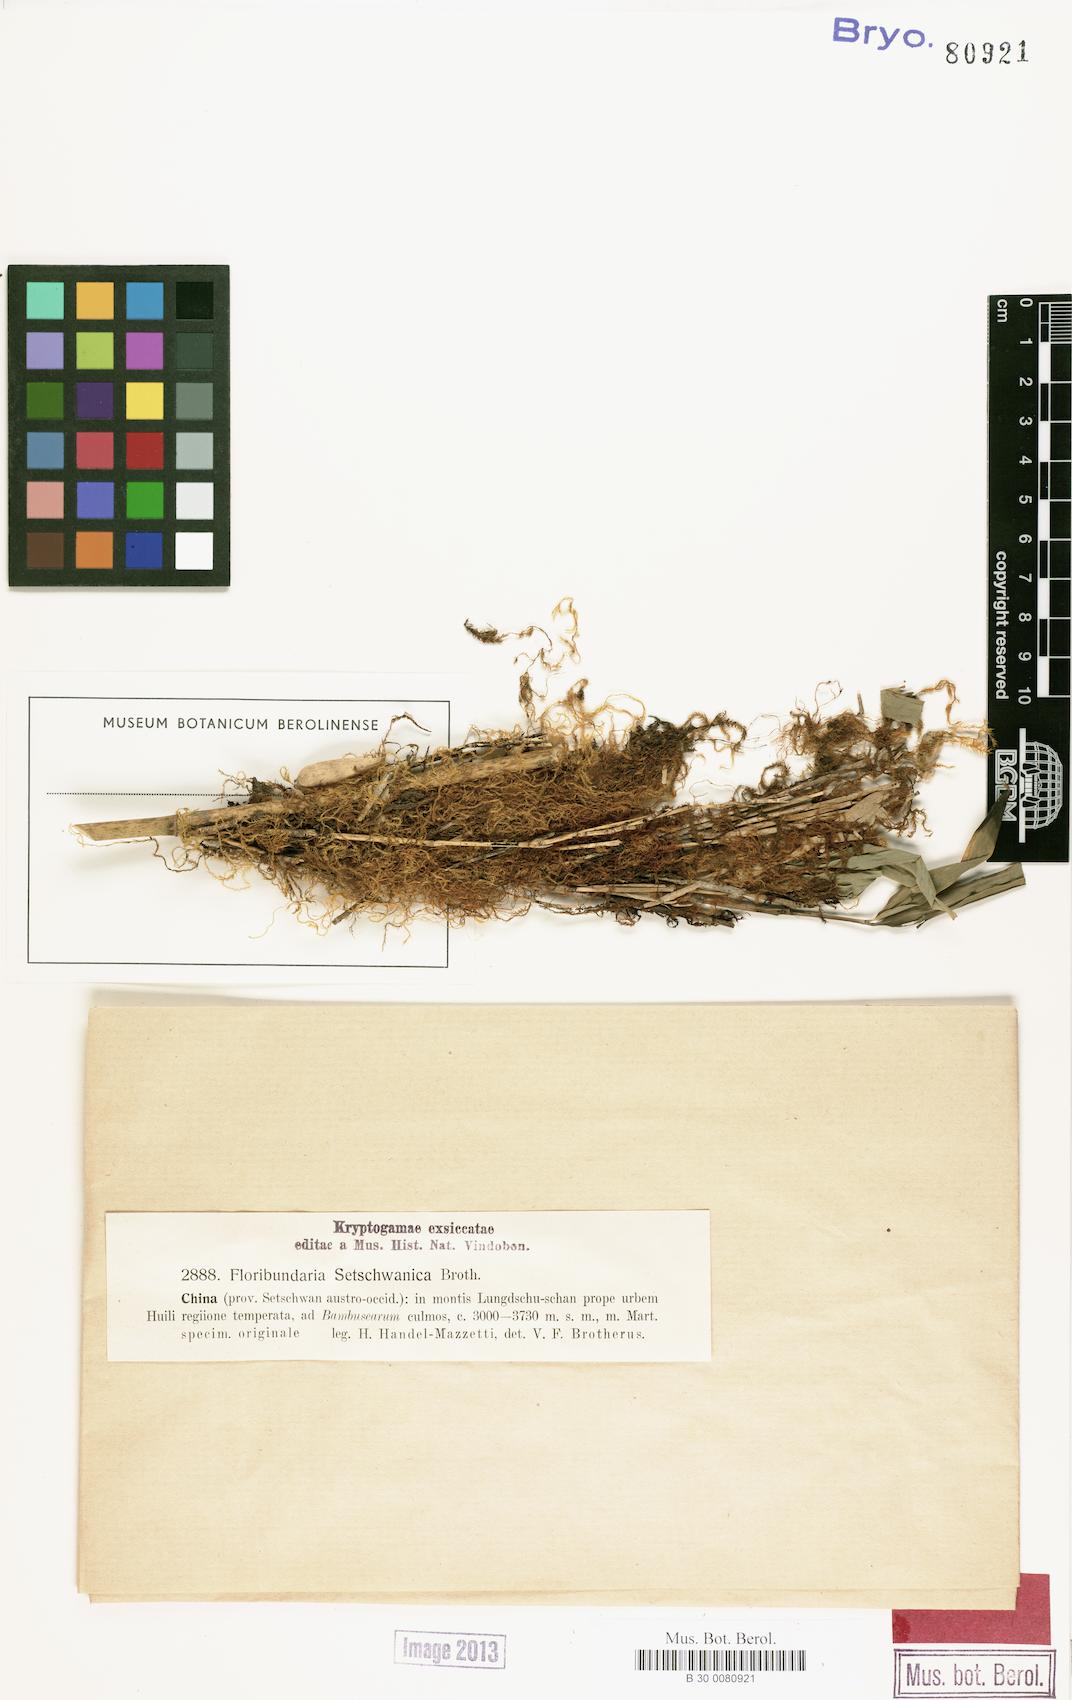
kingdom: Plantae
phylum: Bryophyta
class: Bryopsida
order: Hypnales
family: Meteoriaceae
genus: Floribundaria
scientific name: Floribundaria setschwanica
